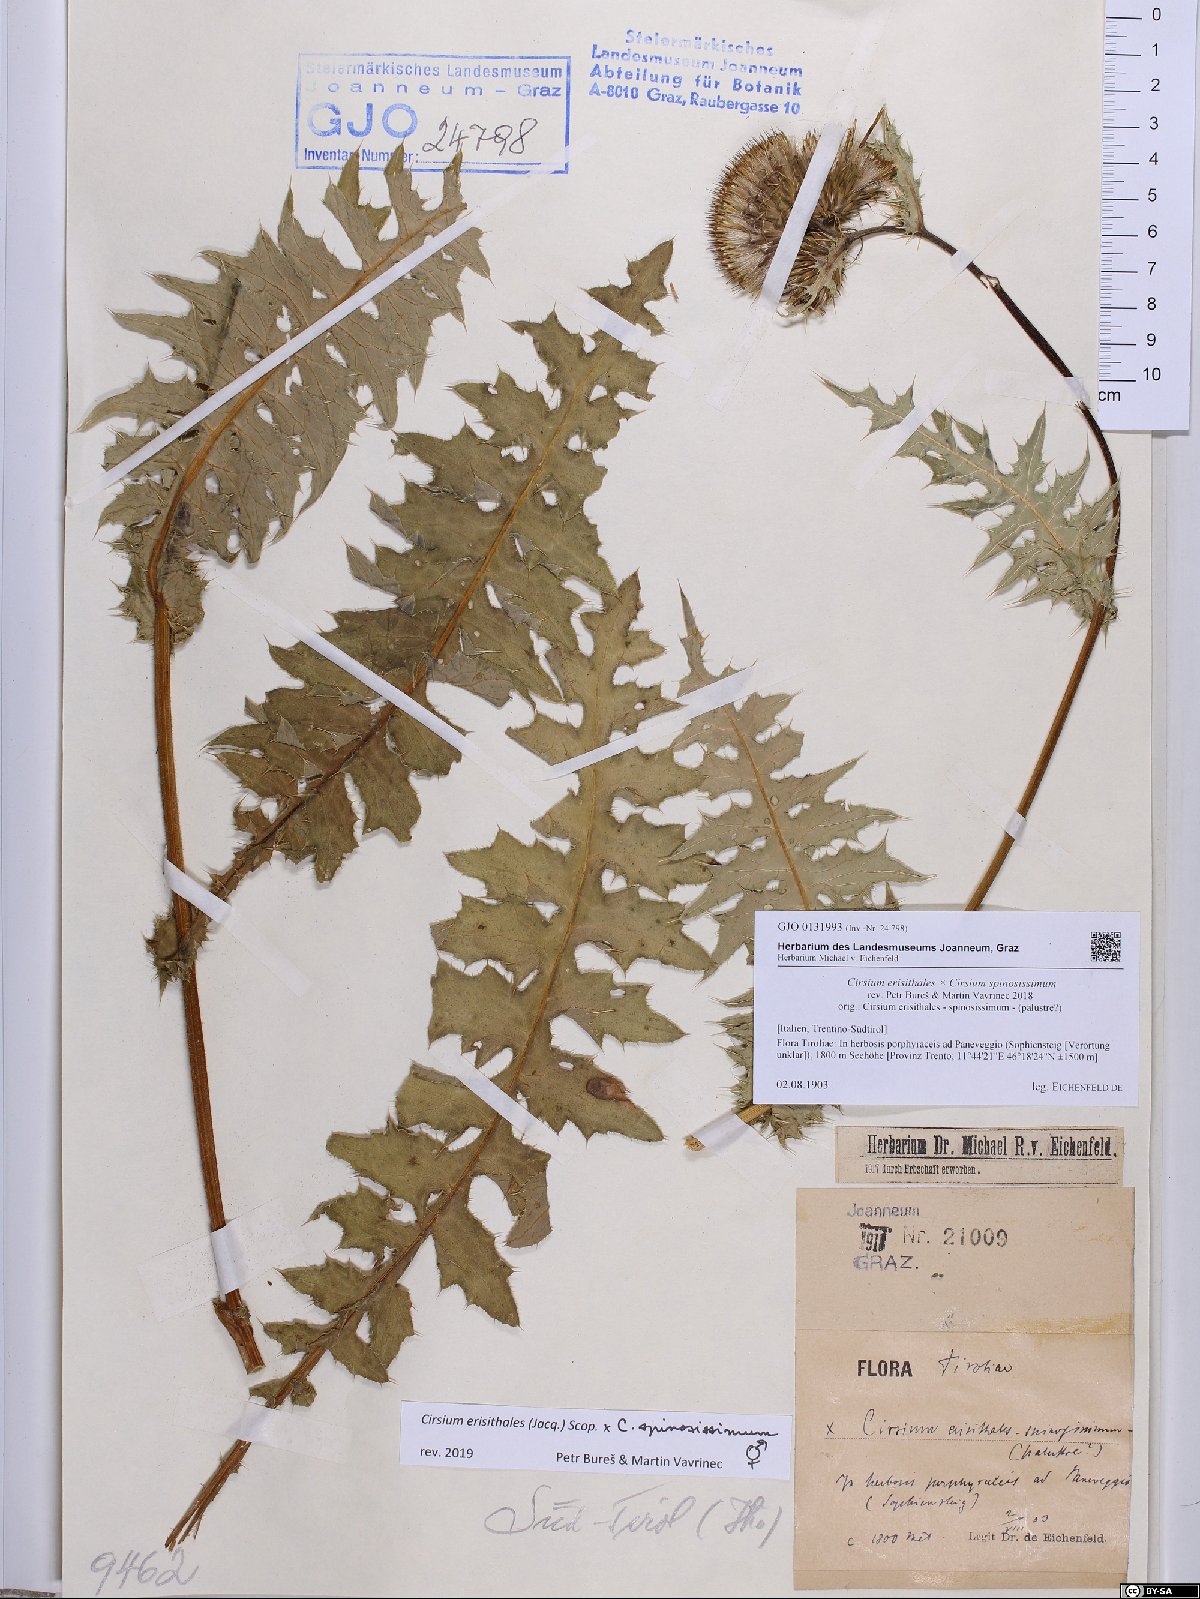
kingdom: Plantae
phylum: Tracheophyta
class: Magnoliopsida
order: Asterales
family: Asteraceae
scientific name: Asteraceae
